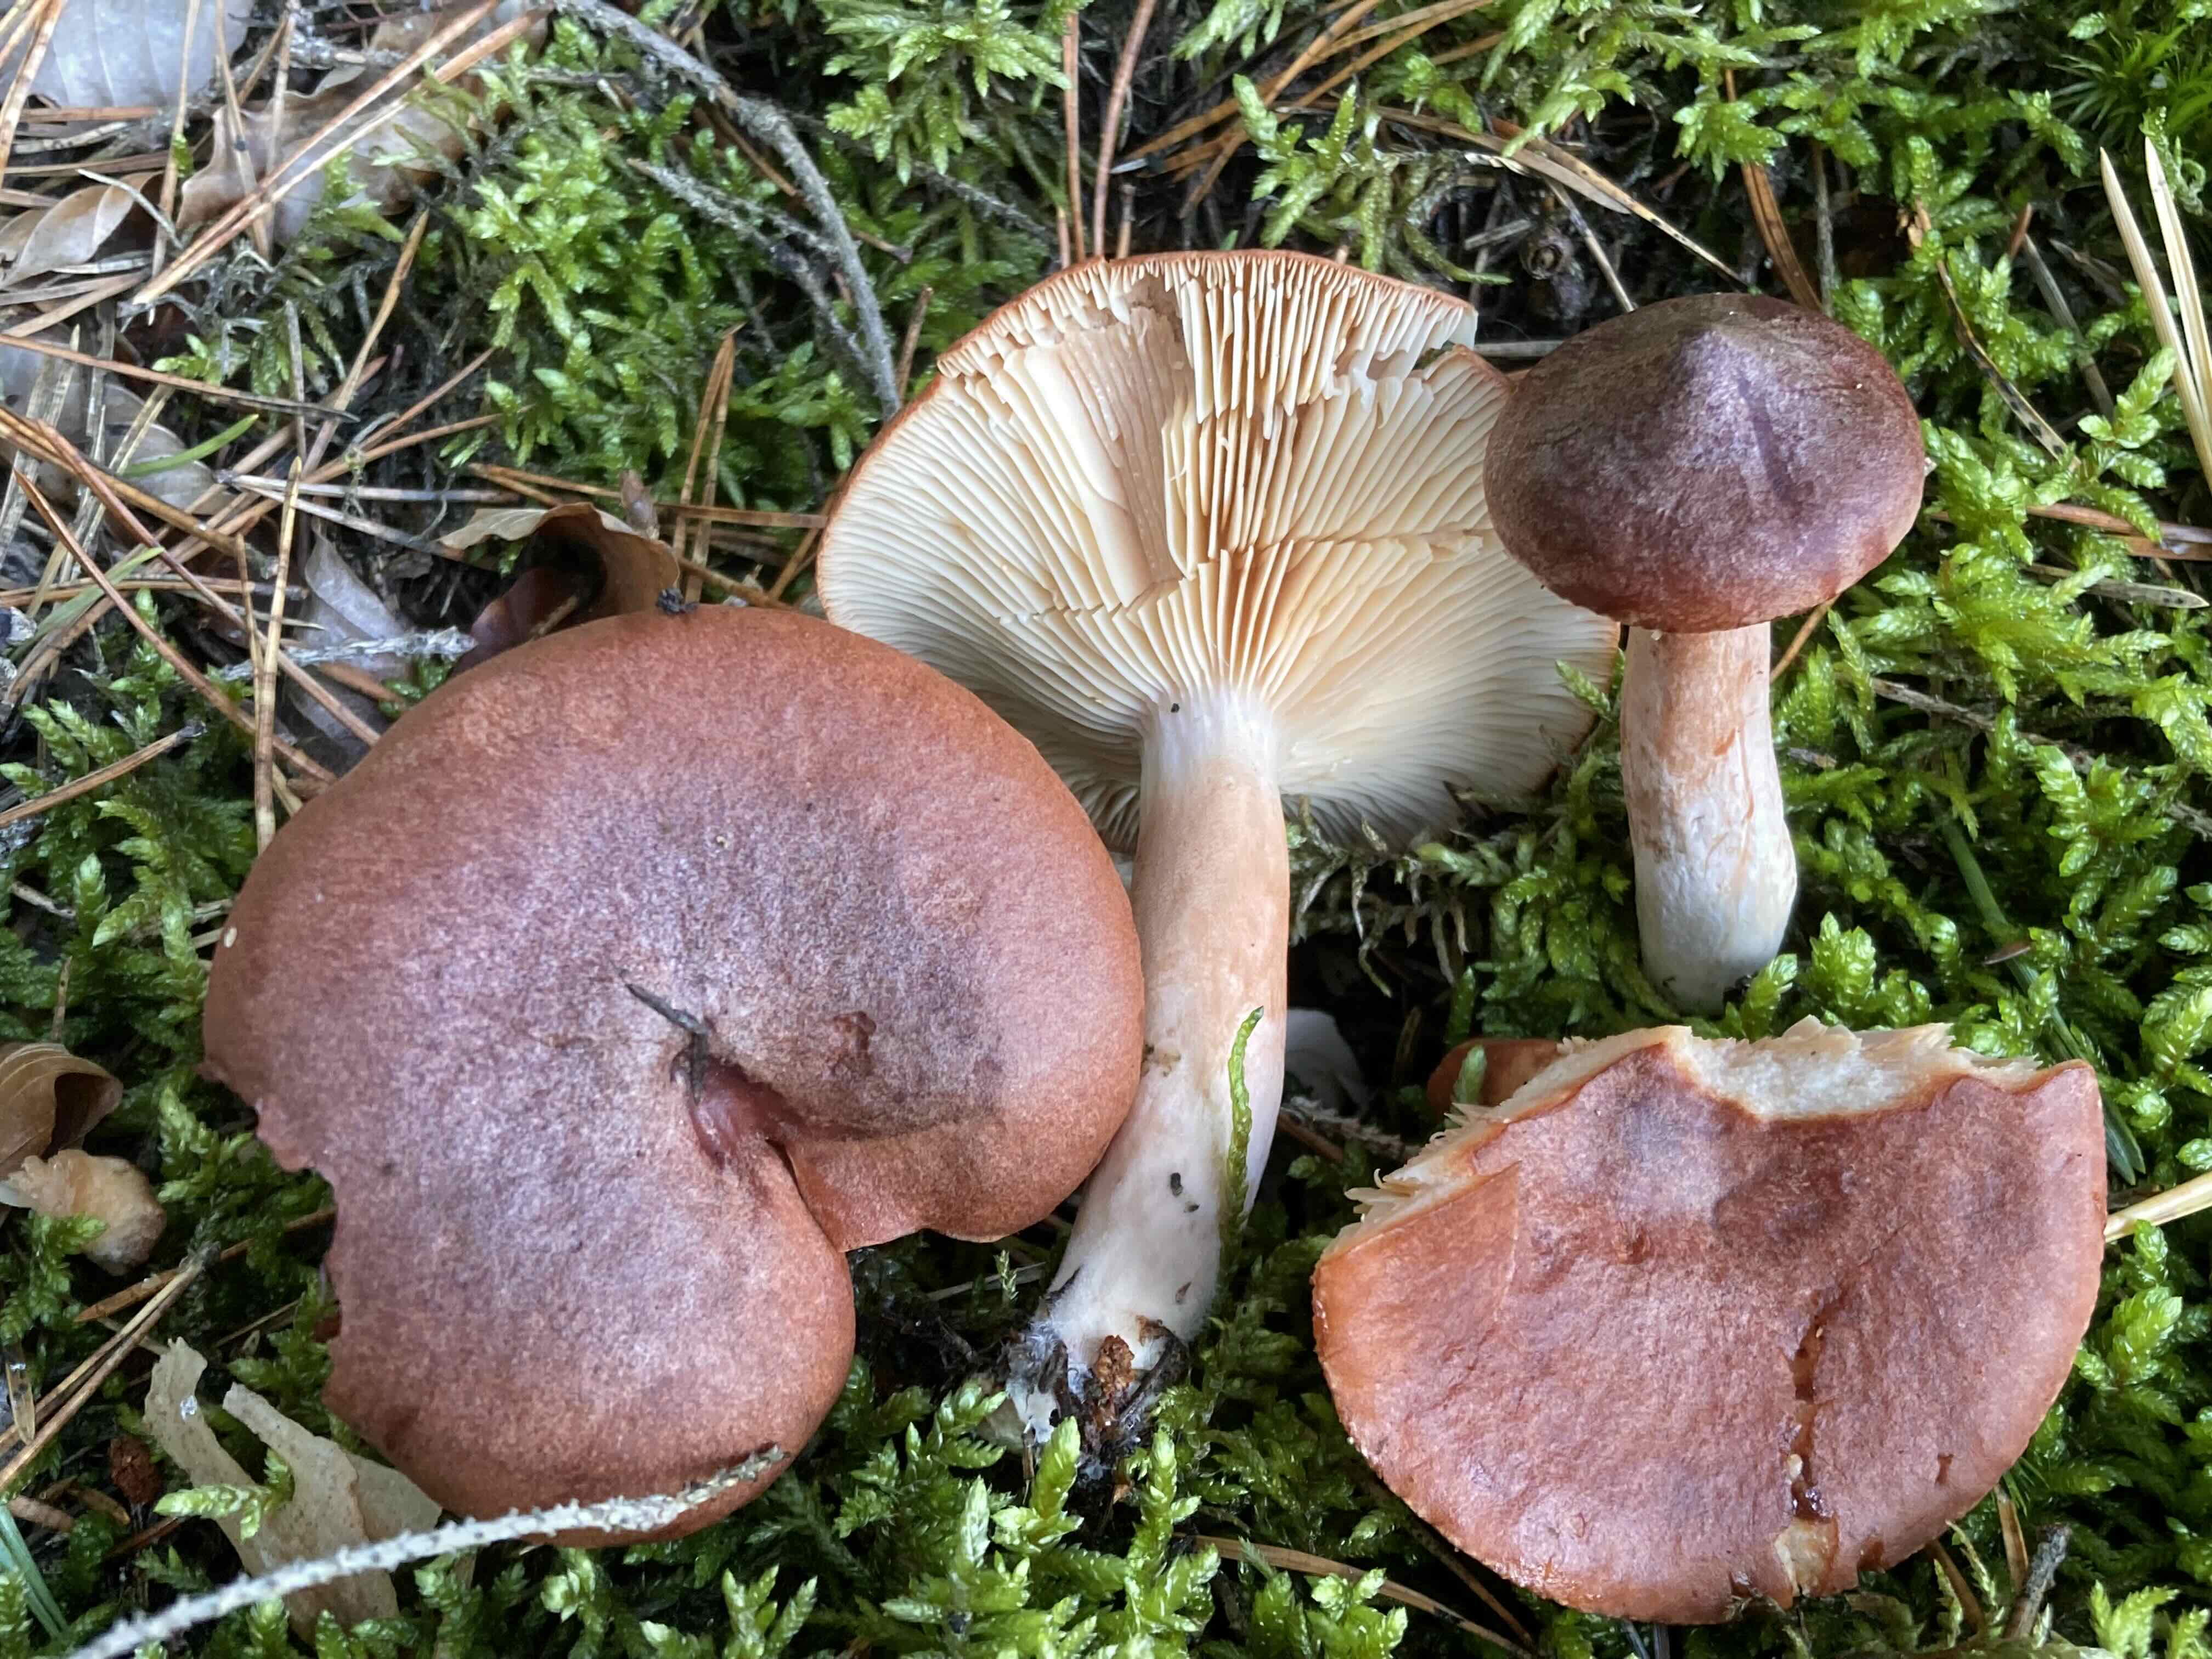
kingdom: Fungi
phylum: Basidiomycota
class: Agaricomycetes
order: Russulales
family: Russulaceae
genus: Lactarius
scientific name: Lactarius rufus
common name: rødbrun mælkehat
